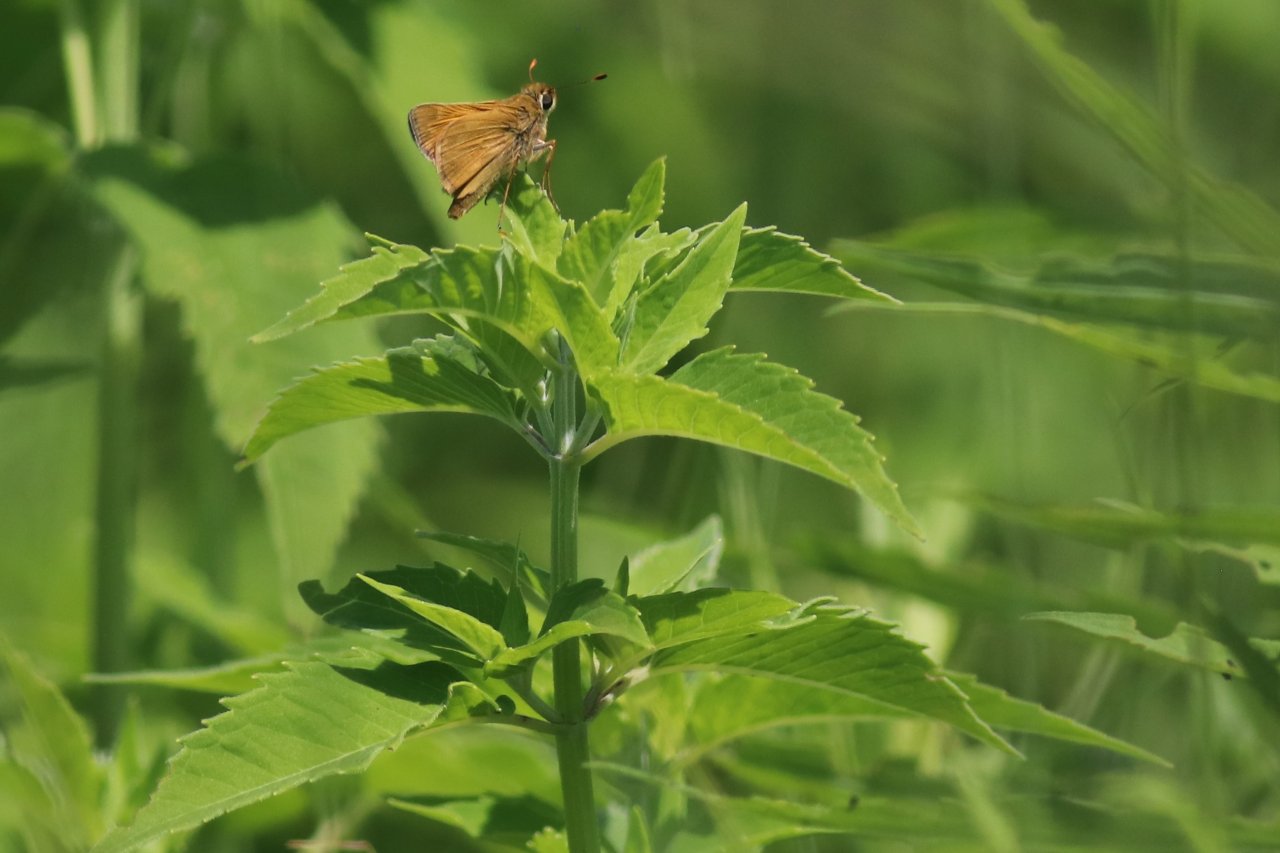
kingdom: Animalia
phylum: Arthropoda
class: Insecta
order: Lepidoptera
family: Hesperiidae
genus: Polites
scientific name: Polites
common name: Crossline Skipper
